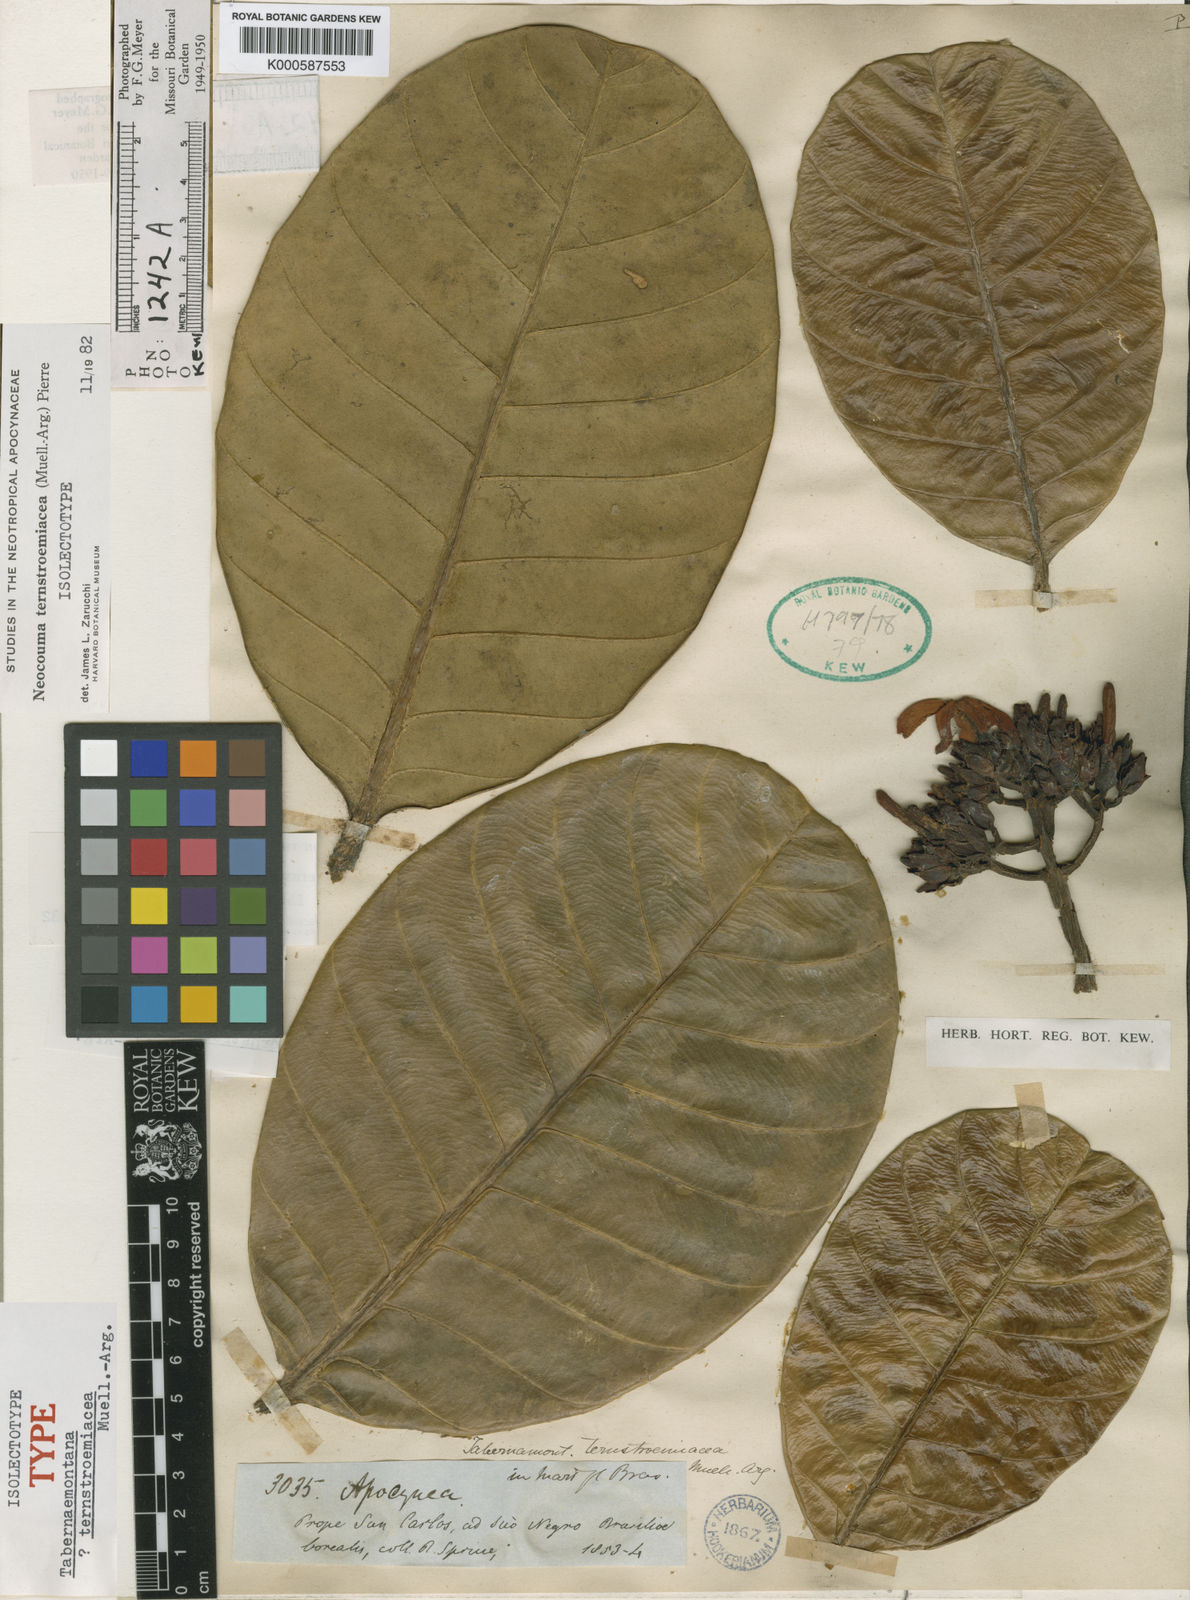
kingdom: Plantae
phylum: Tracheophyta
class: Magnoliopsida
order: Gentianales
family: Apocynaceae
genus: Neocouma
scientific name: Neocouma
